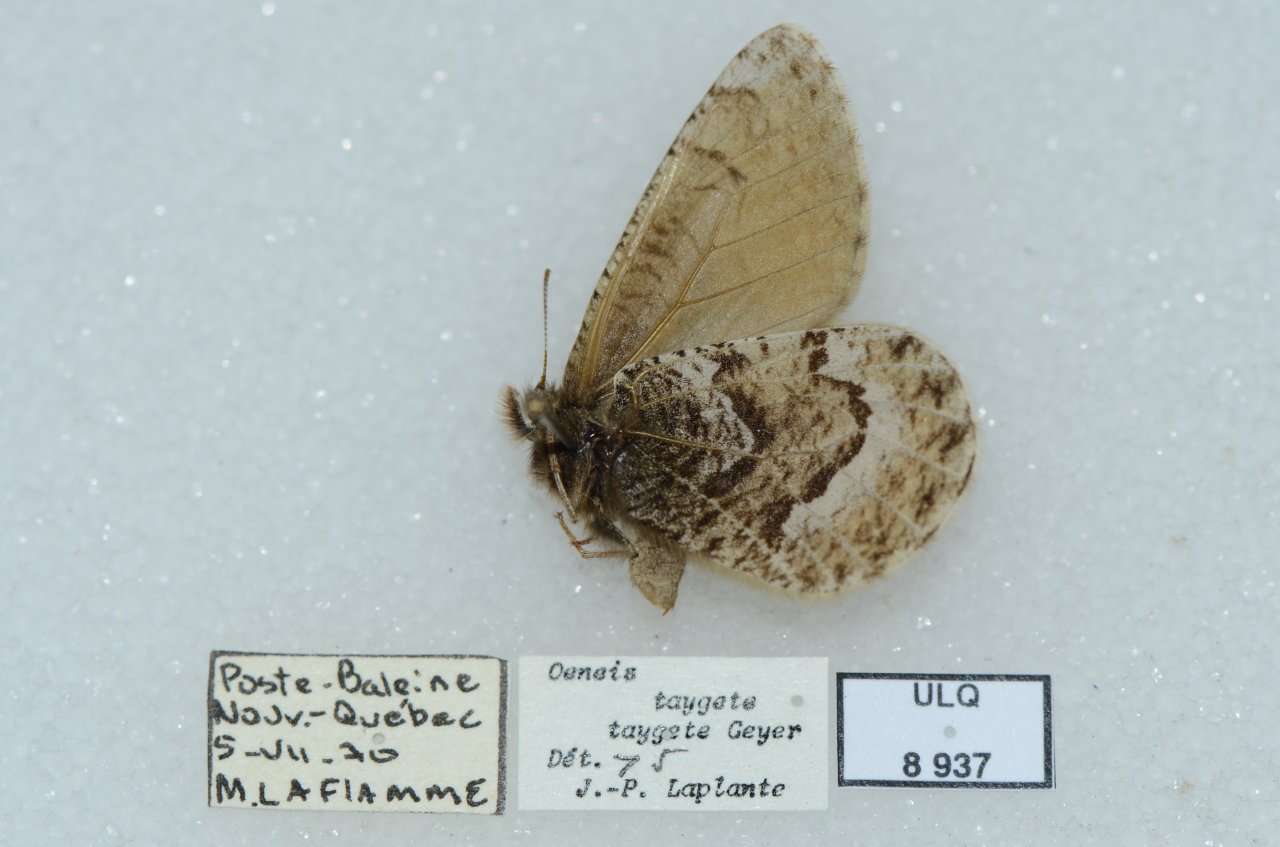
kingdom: Animalia
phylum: Arthropoda
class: Insecta
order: Lepidoptera
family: Nymphalidae
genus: Oeneis
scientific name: Oeneis bore
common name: White-veined Arctic
